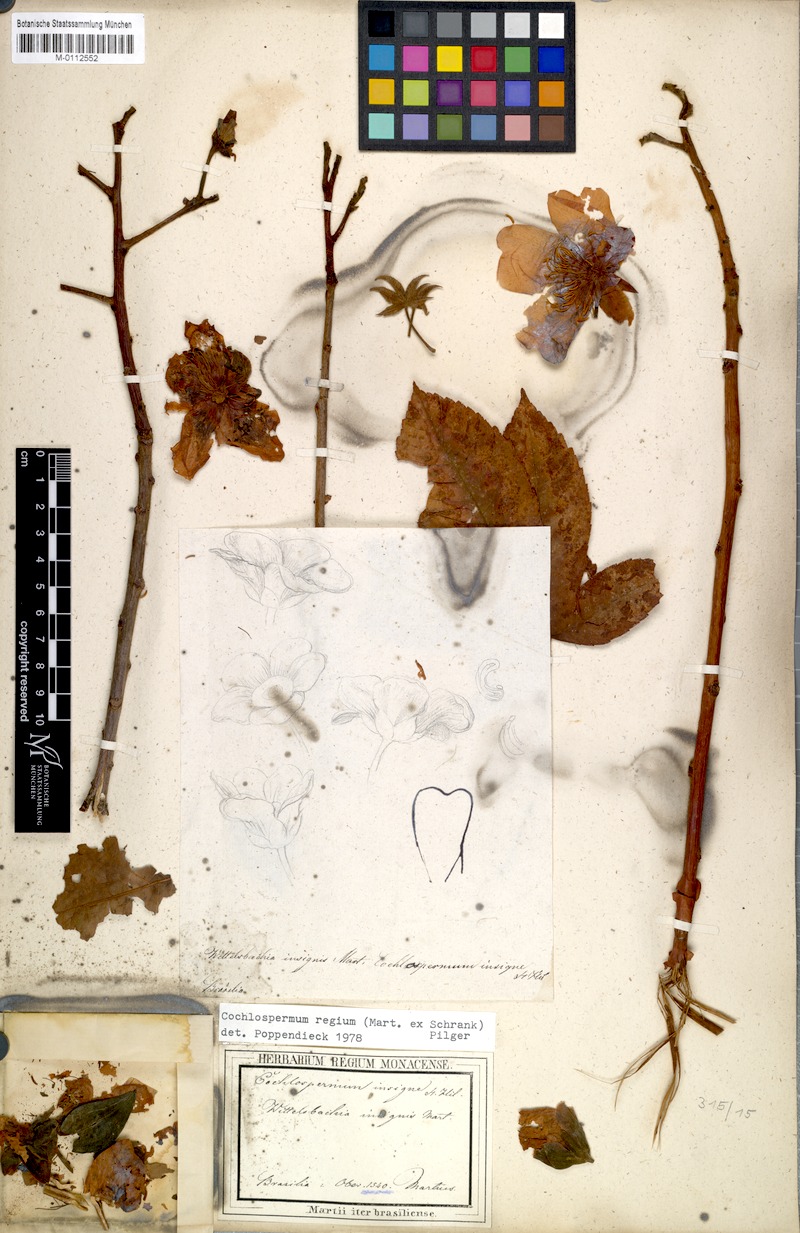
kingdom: Plantae
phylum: Tracheophyta
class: Magnoliopsida
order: Malvales
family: Cochlospermaceae
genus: Cochlospermum
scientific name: Cochlospermum regium
